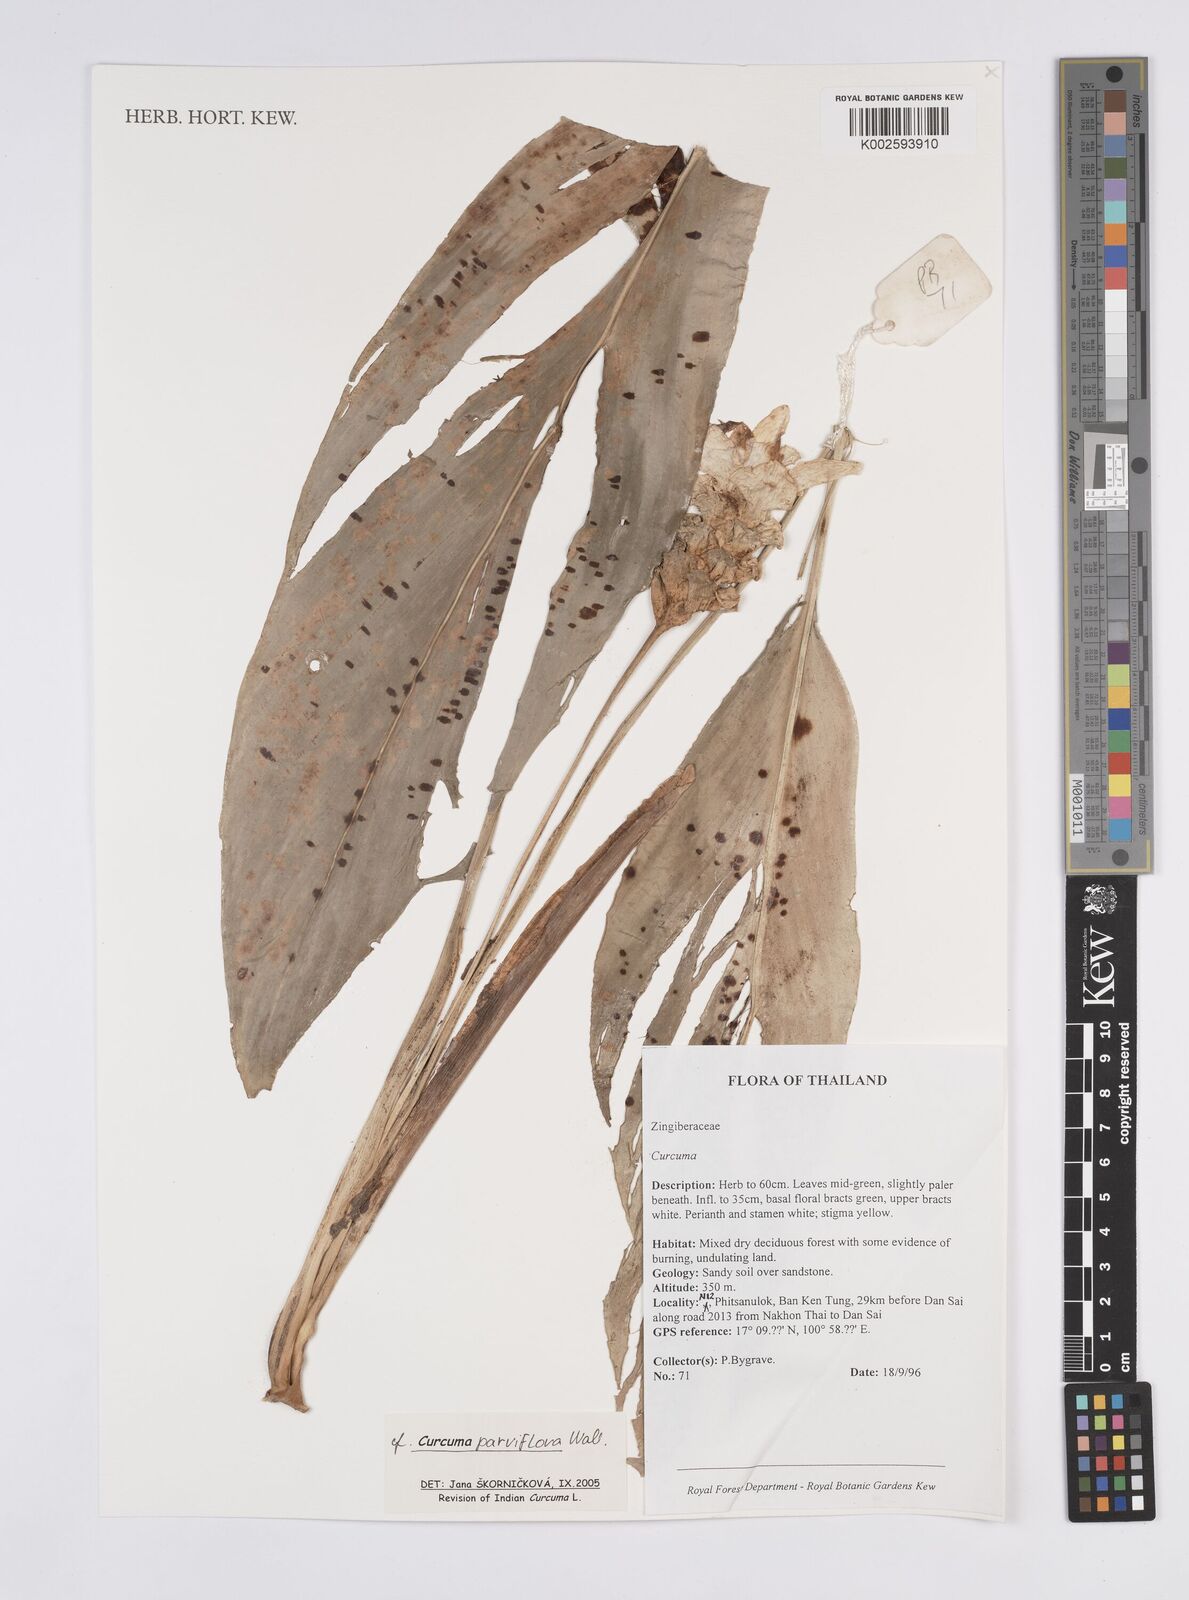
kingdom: Plantae
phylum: Tracheophyta
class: Liliopsida
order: Zingiberales
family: Zingiberaceae
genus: Curcuma
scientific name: Curcuma parviflora
